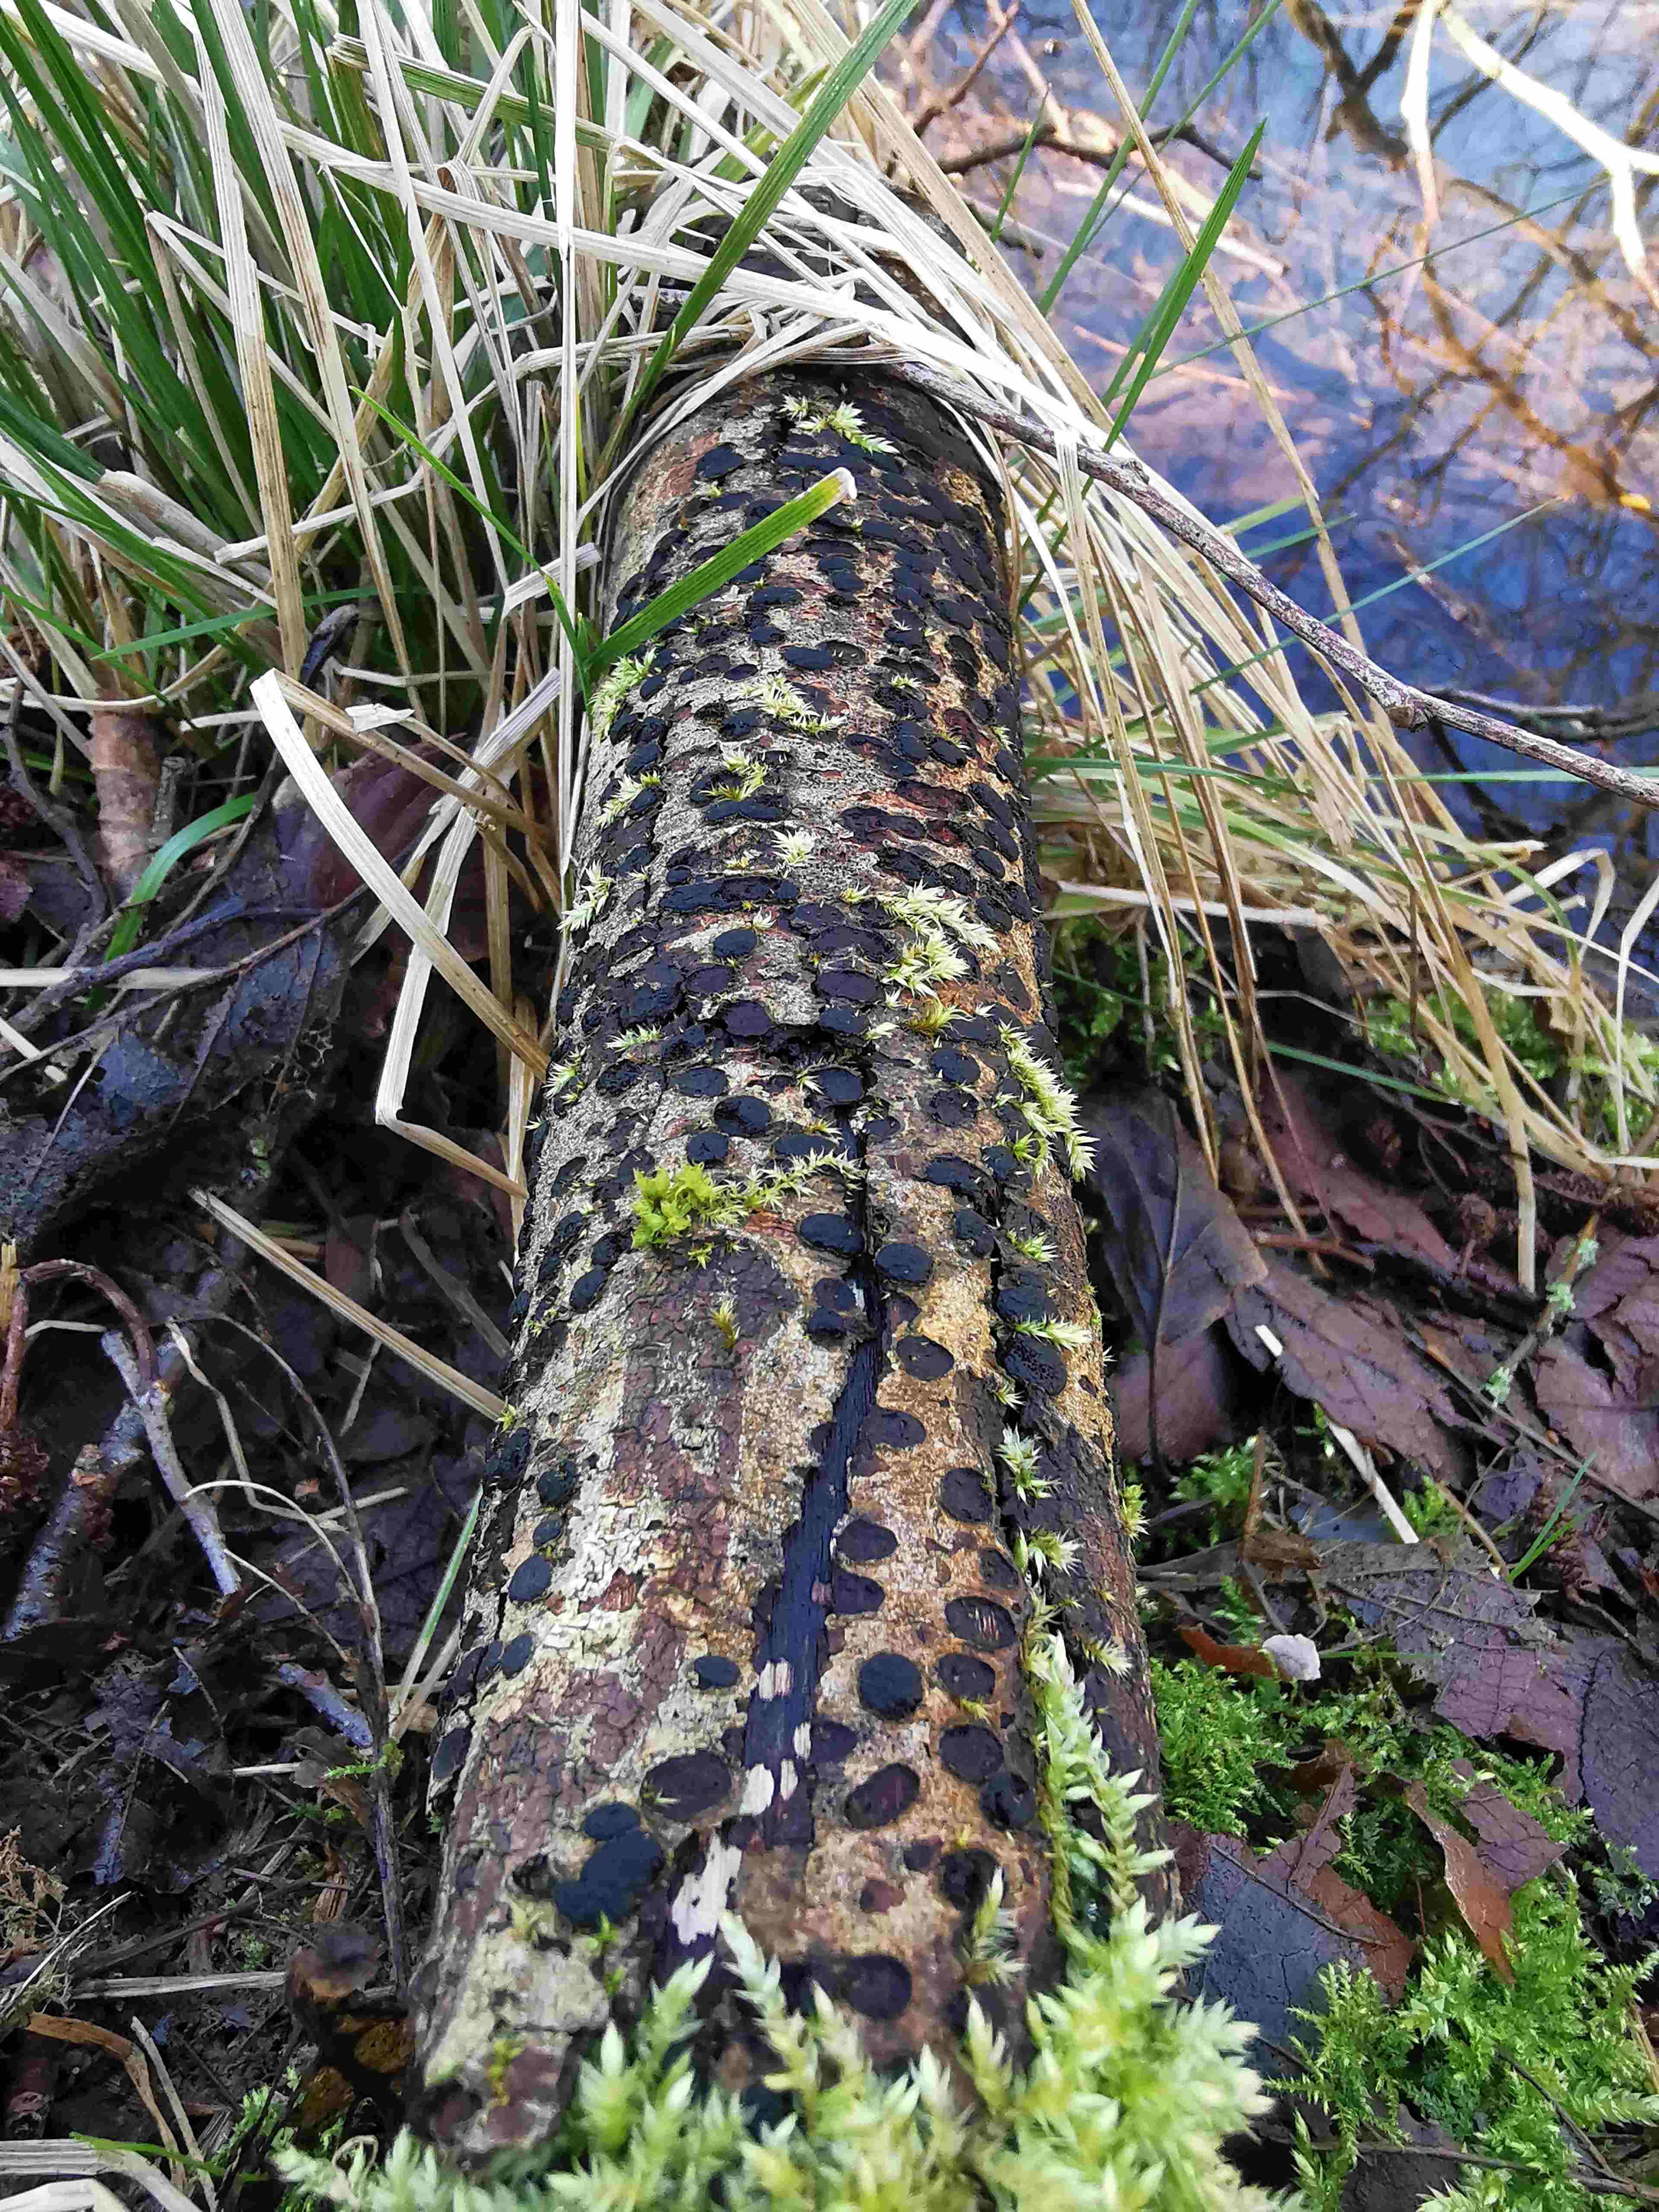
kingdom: Fungi
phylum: Ascomycota
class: Sordariomycetes
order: Xylariales
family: Diatrypaceae
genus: Diatrype
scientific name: Diatrype bullata
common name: pile-kulskorpe
